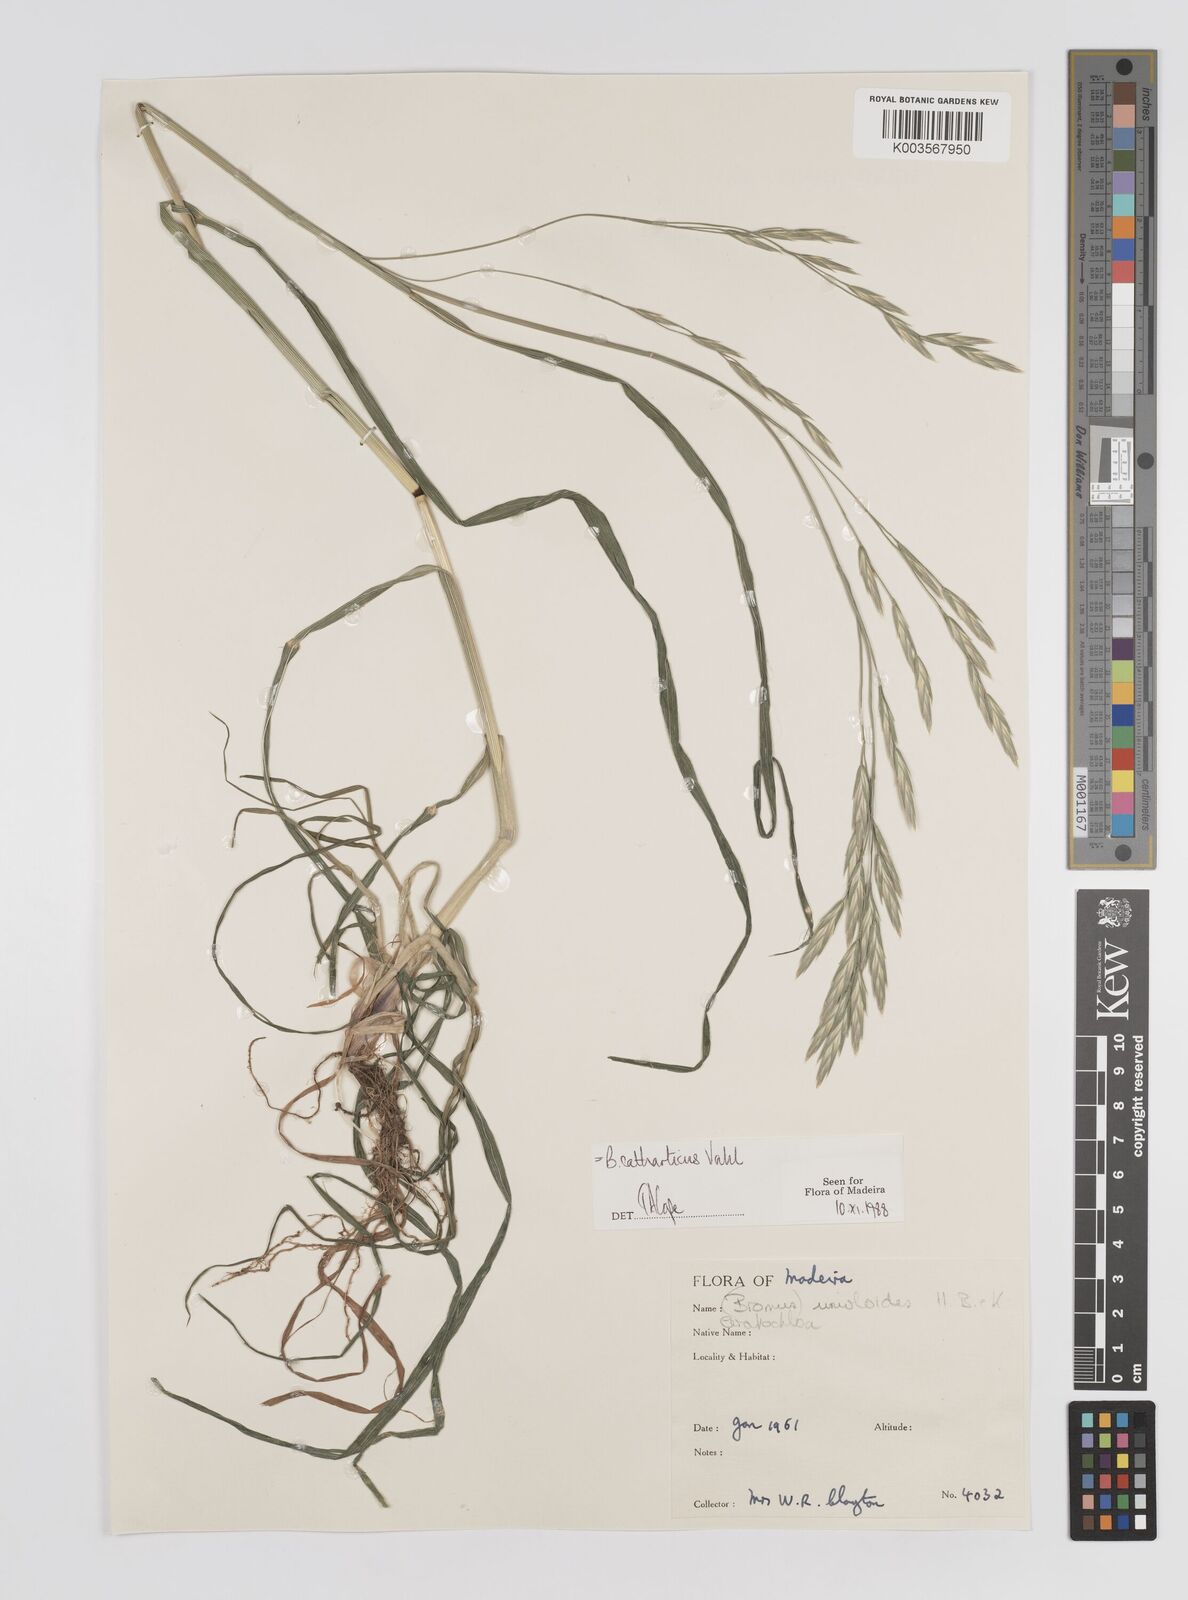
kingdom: Plantae
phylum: Tracheophyta
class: Liliopsida
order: Poales
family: Poaceae
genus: Bromus
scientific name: Bromus catharticus
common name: Rescuegrass
